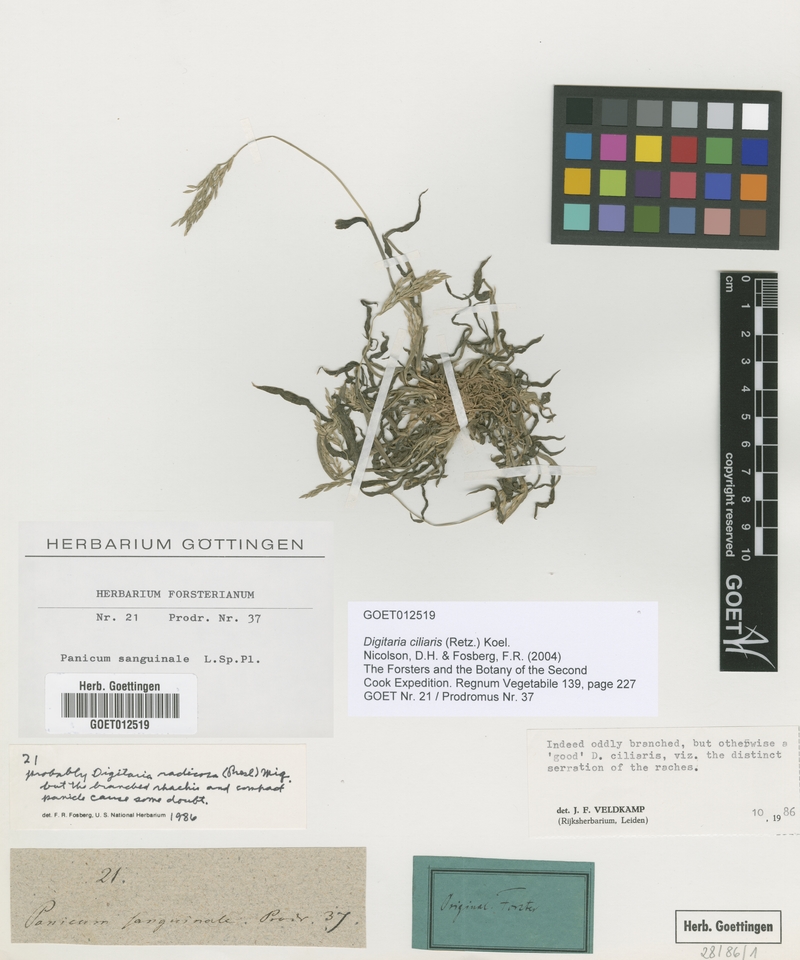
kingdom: Plantae
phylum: Tracheophyta
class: Liliopsida
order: Poales
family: Poaceae
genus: Digitaria
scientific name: Digitaria ciliaris
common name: Tropical finger-grass
